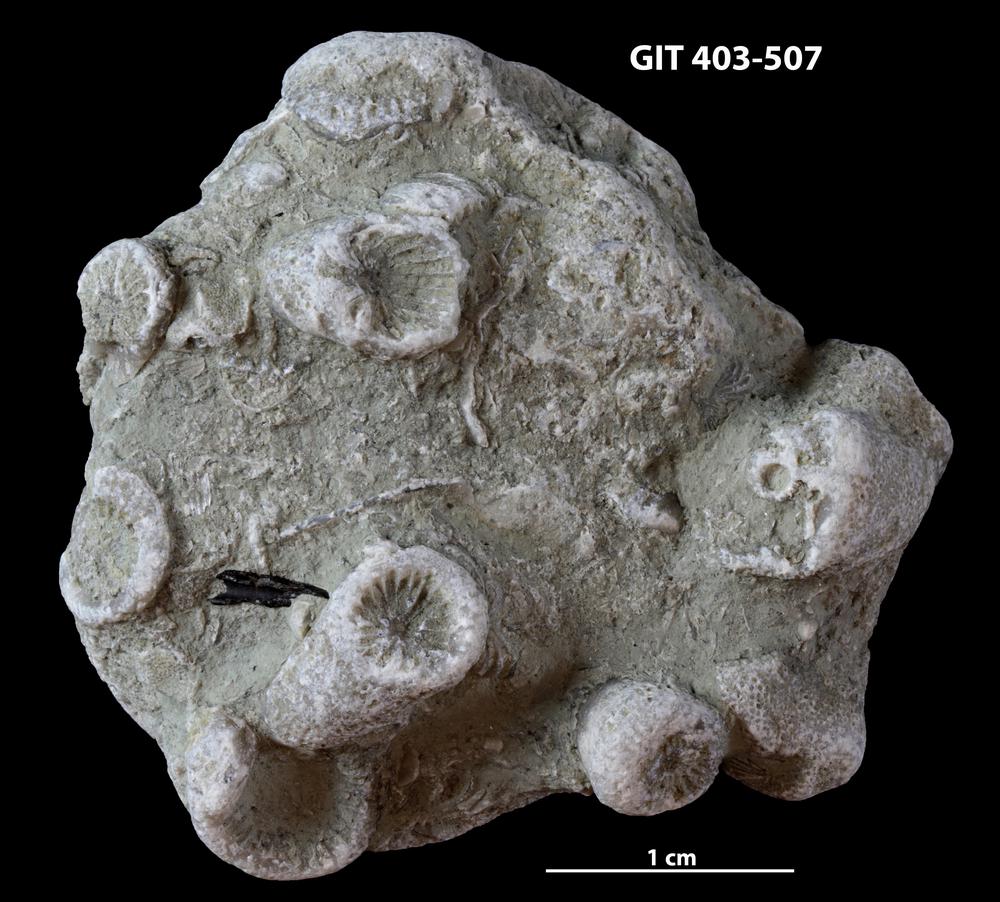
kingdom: Animalia
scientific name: Animalia
